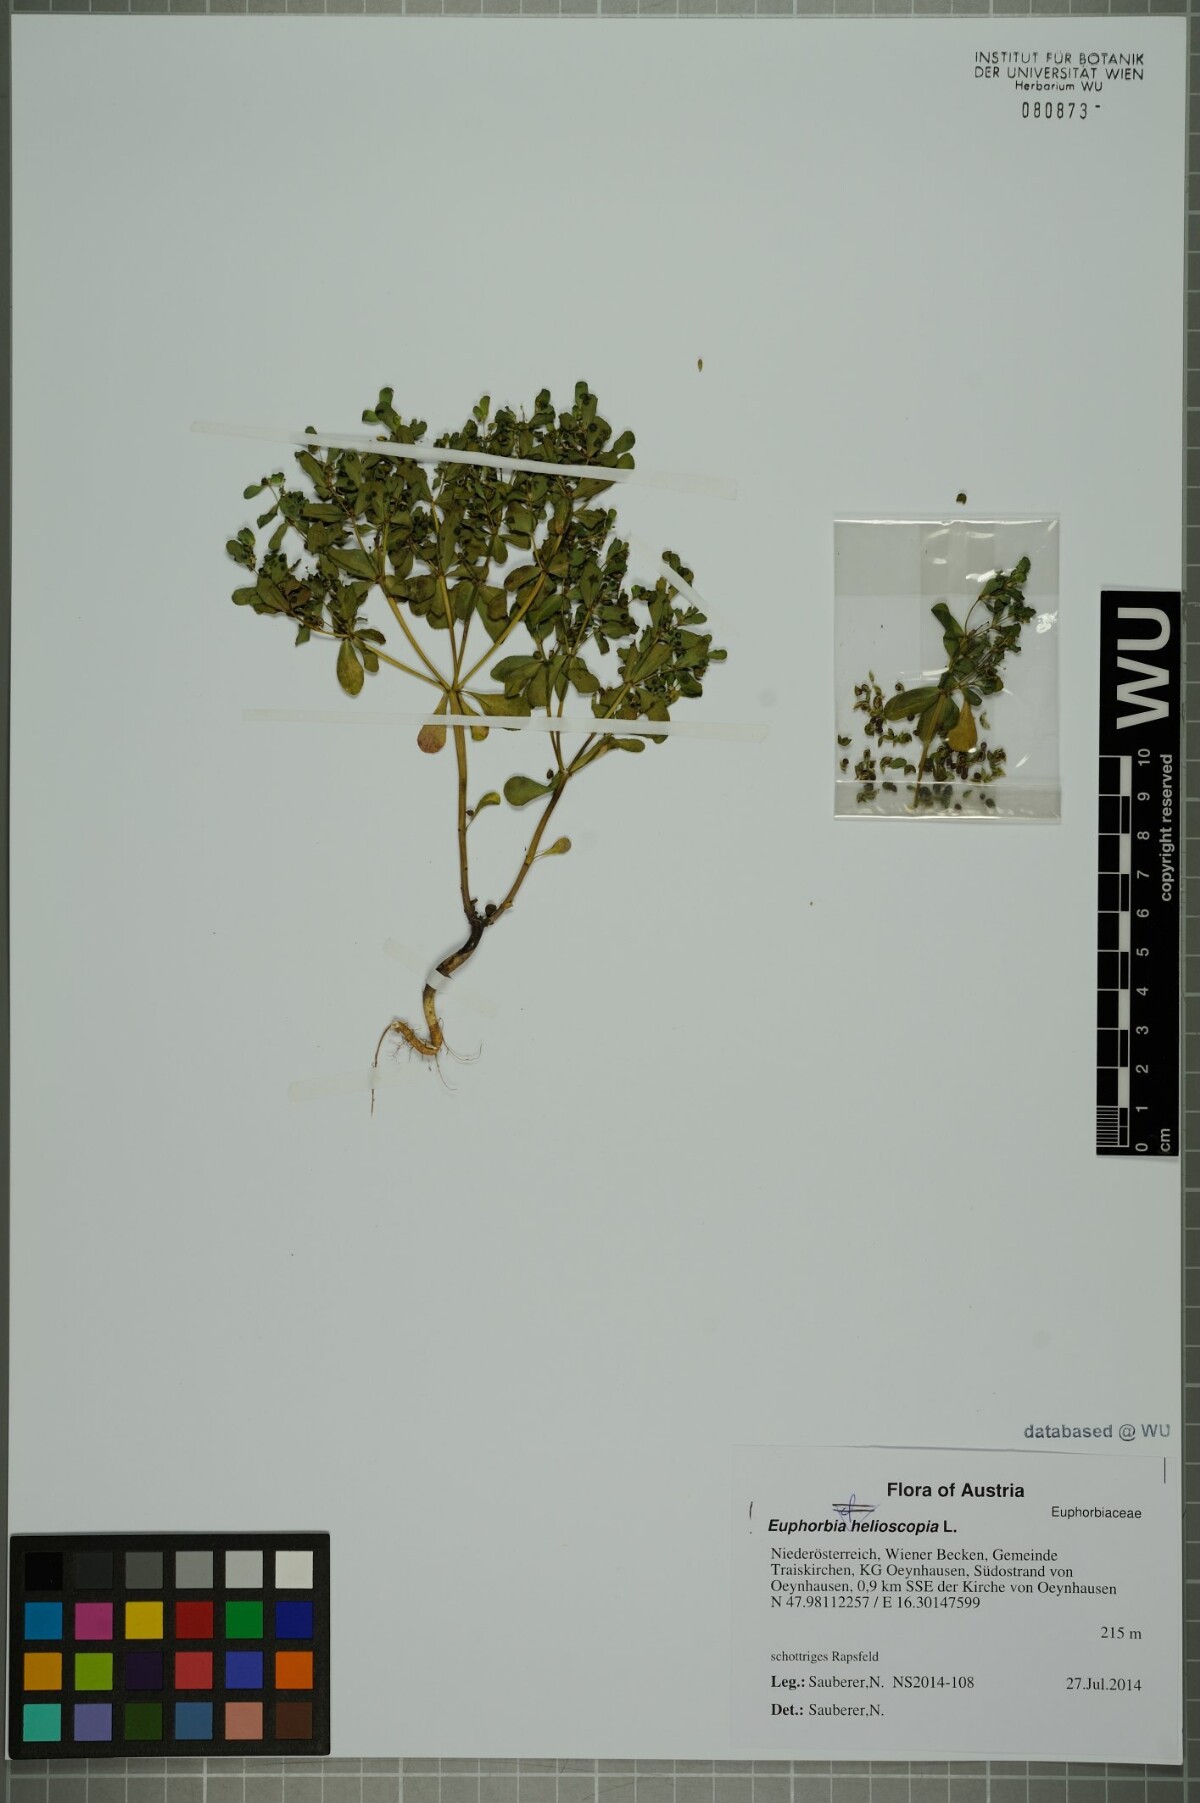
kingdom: Plantae
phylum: Tracheophyta
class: Magnoliopsida
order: Malpighiales
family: Euphorbiaceae
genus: Euphorbia
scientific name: Euphorbia helioscopia
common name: Sun spurge
